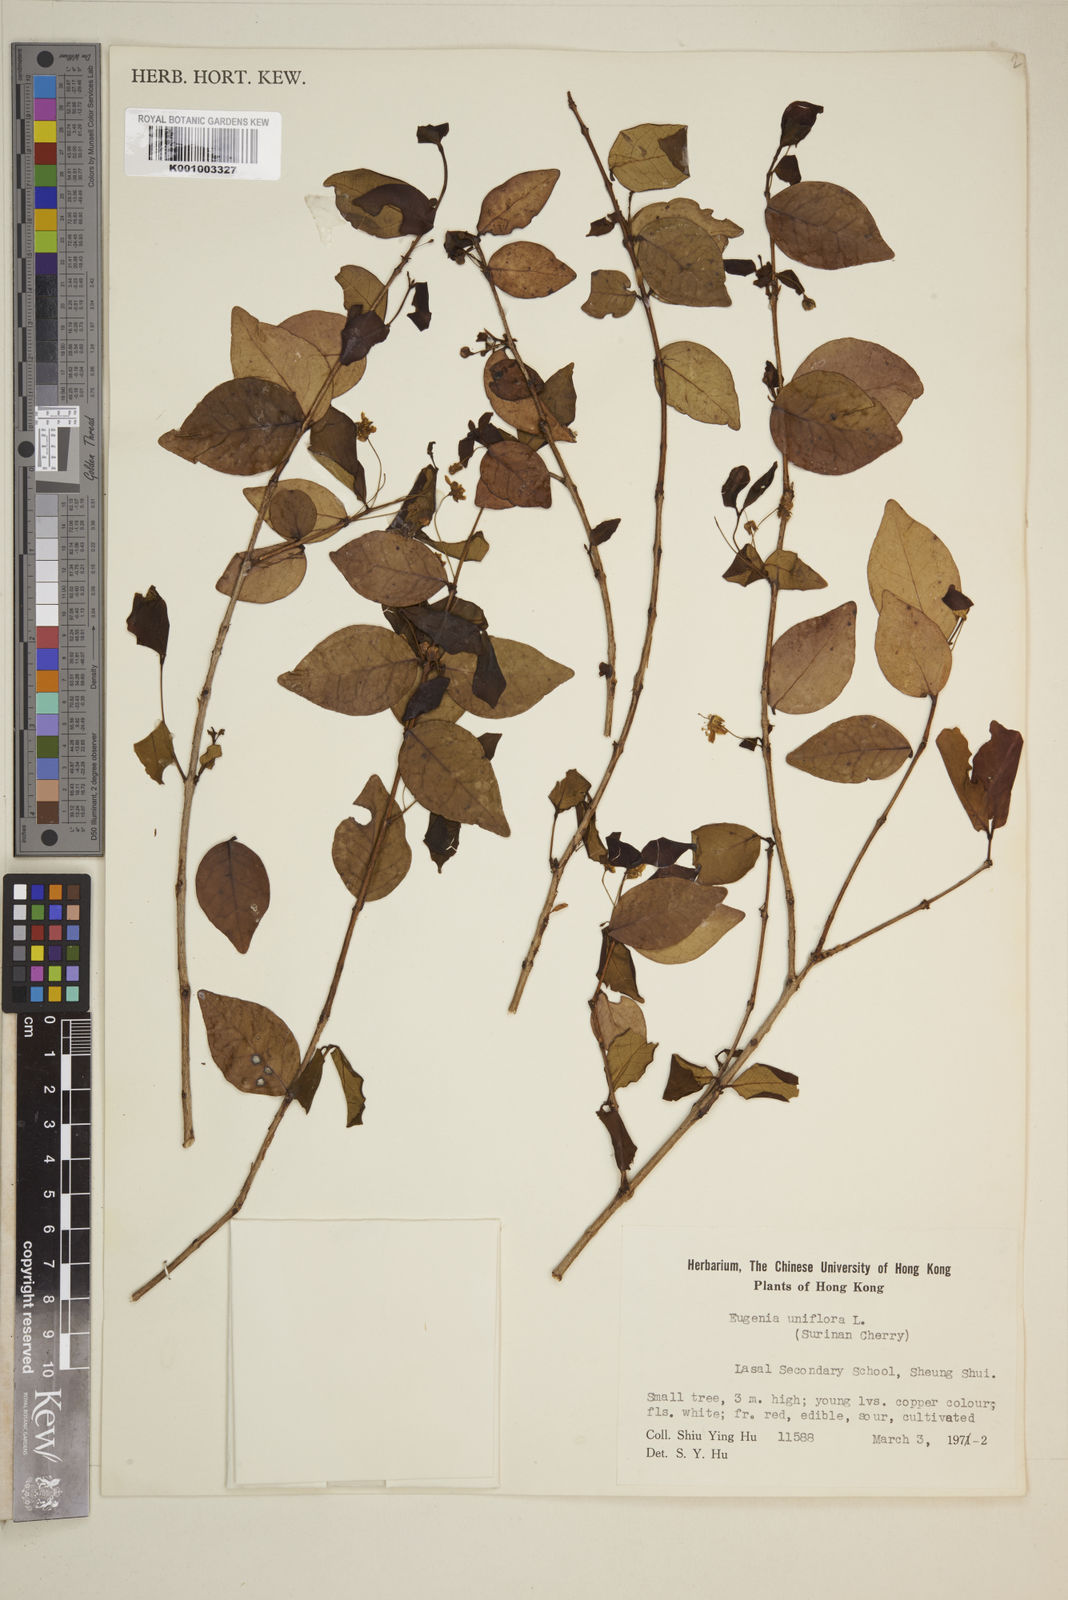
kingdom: Plantae
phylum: Tracheophyta
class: Magnoliopsida
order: Myrtales
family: Myrtaceae
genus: Eugenia
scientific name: Eugenia uniflora
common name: Surinam cherry
